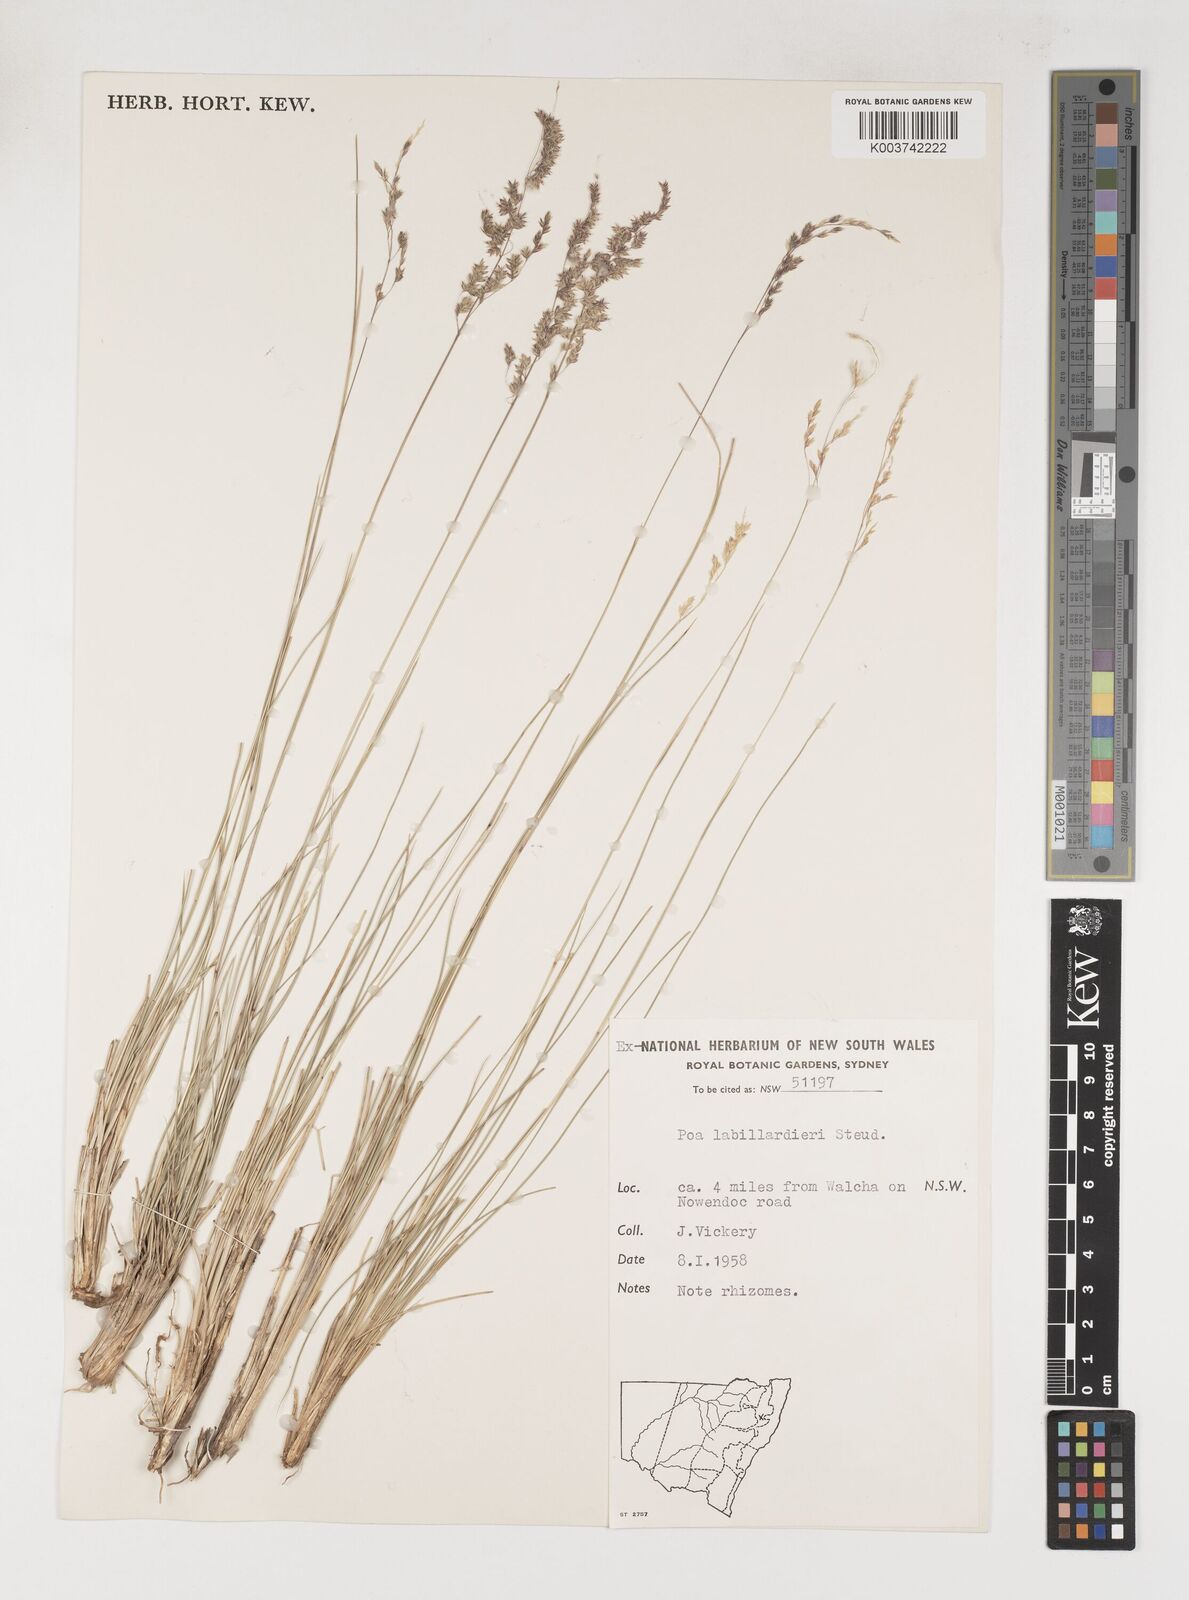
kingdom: Plantae
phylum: Tracheophyta
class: Liliopsida
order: Poales
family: Poaceae
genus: Poa
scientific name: Poa labillardierei
